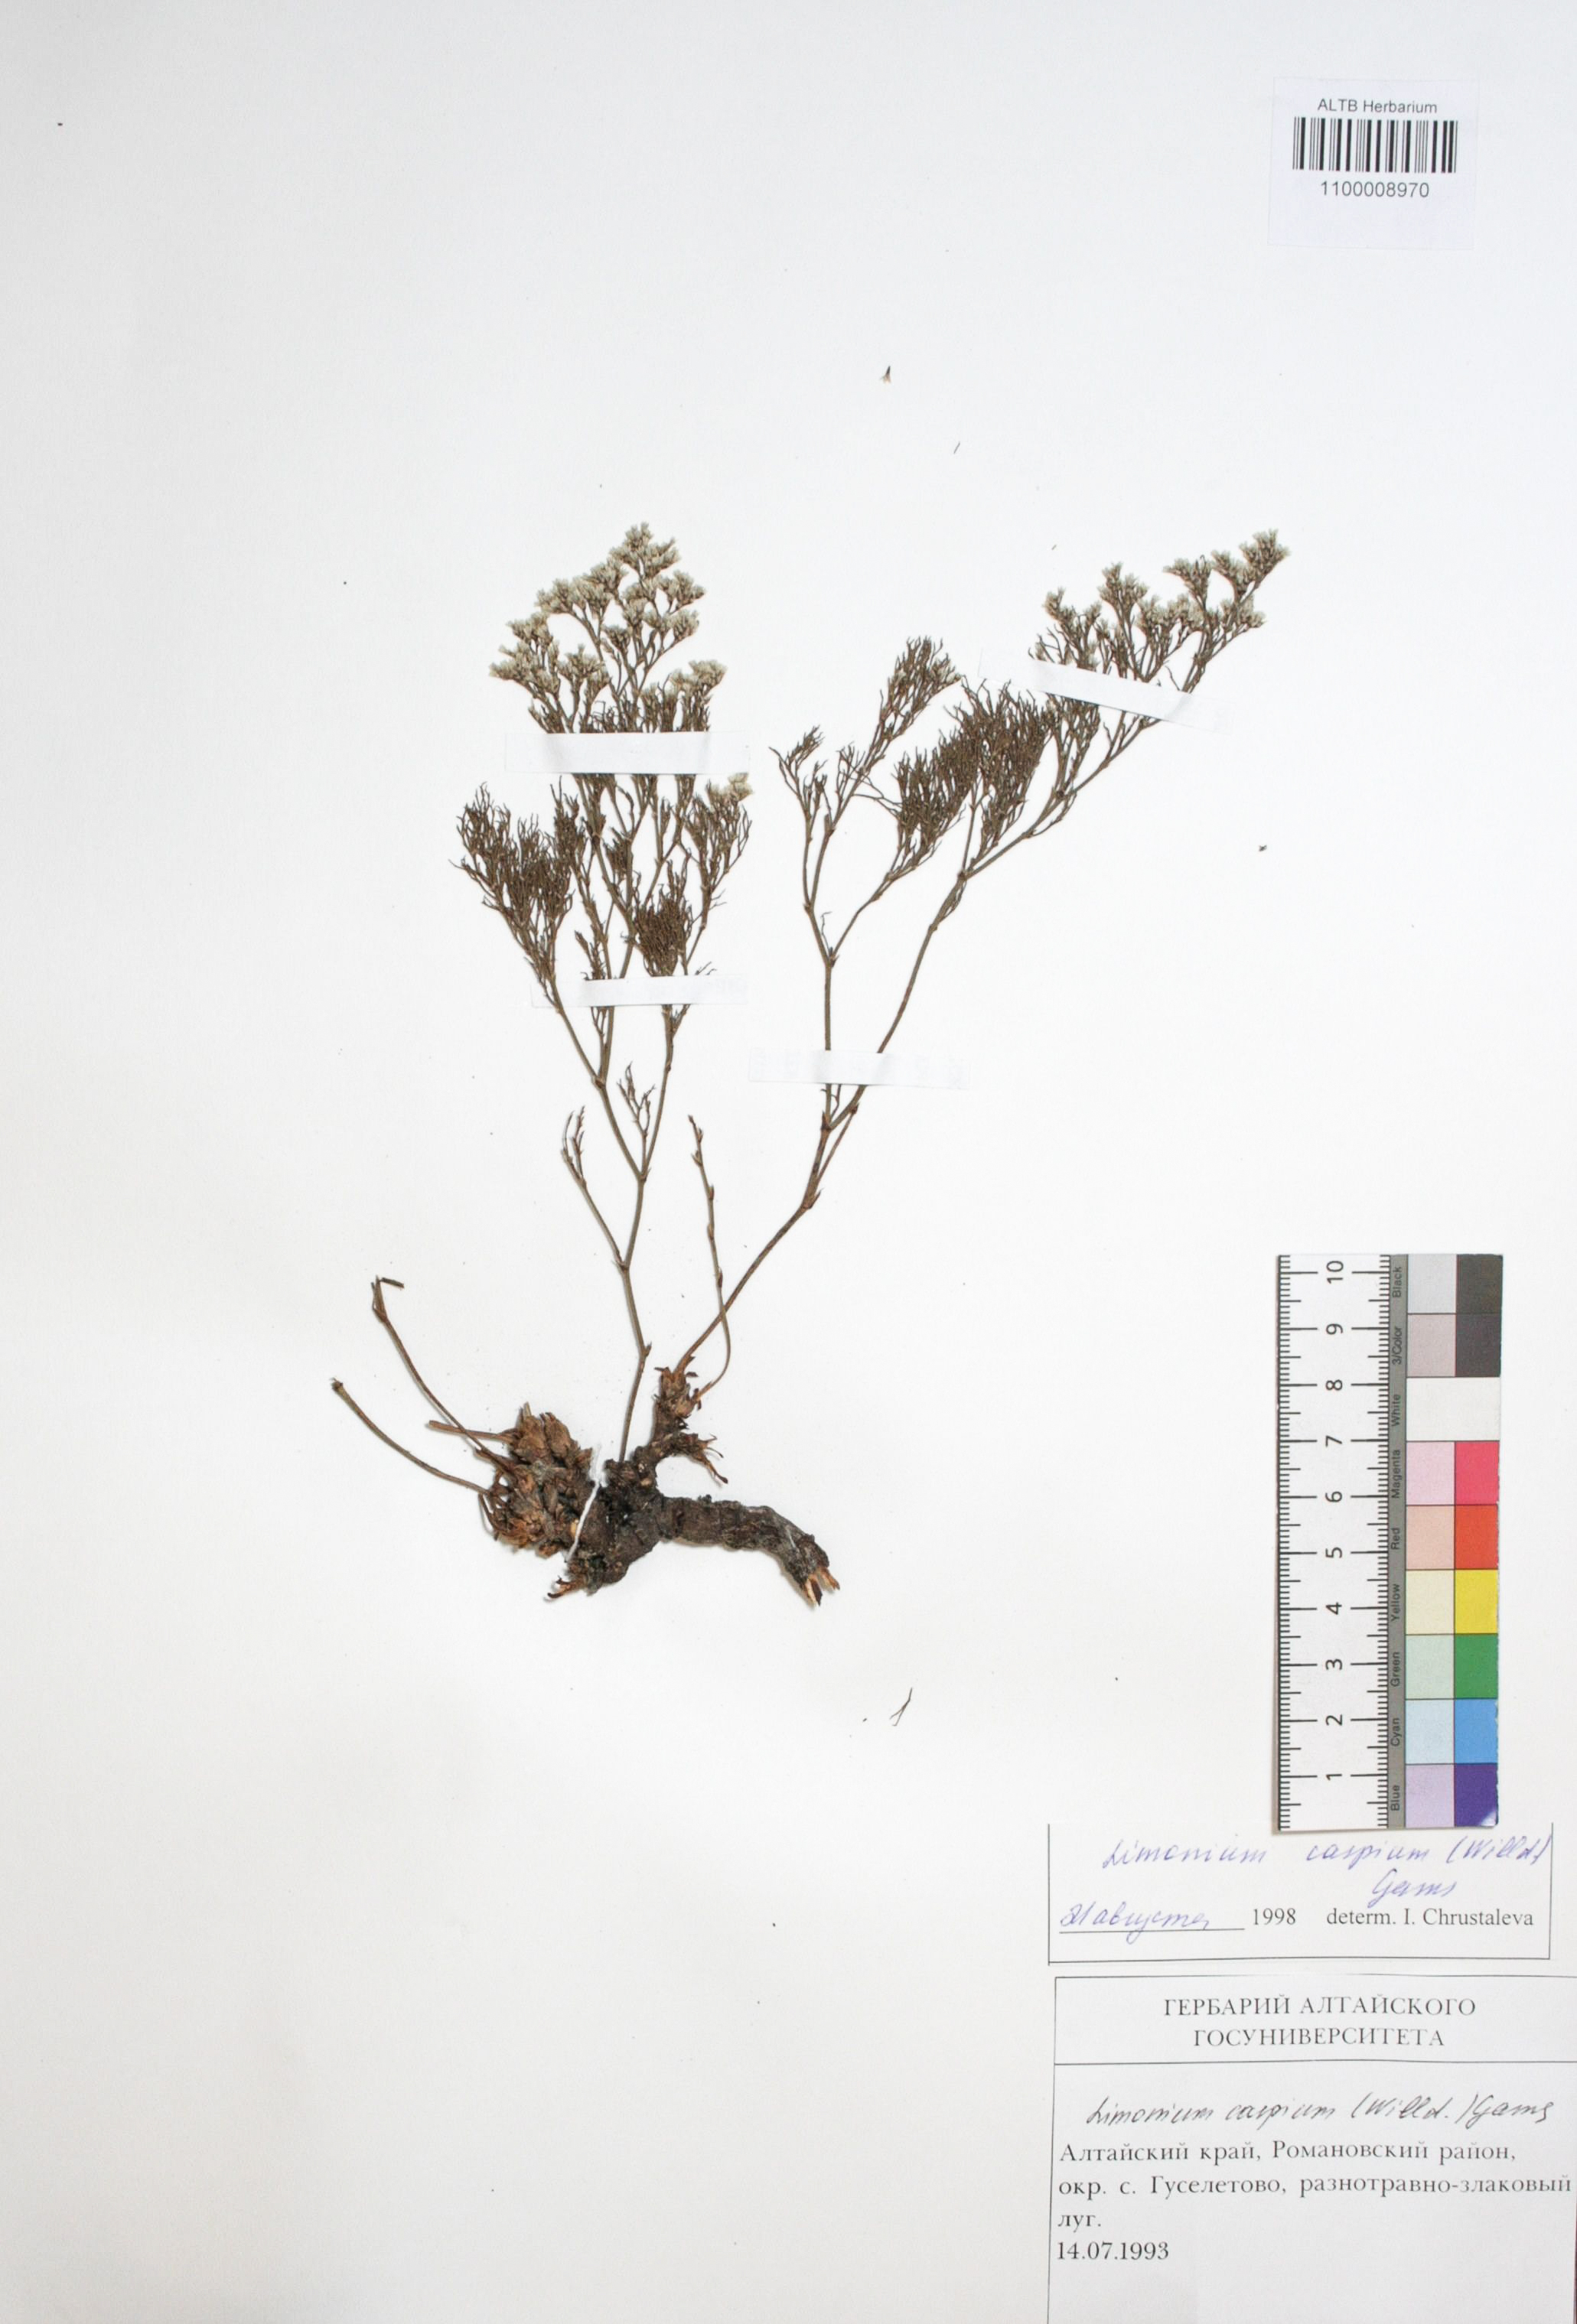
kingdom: Plantae
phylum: Tracheophyta
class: Magnoliopsida
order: Caryophyllales
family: Plumbaginaceae
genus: Limonium
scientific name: Limonium bellidifolium
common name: Matted sea-lavender
